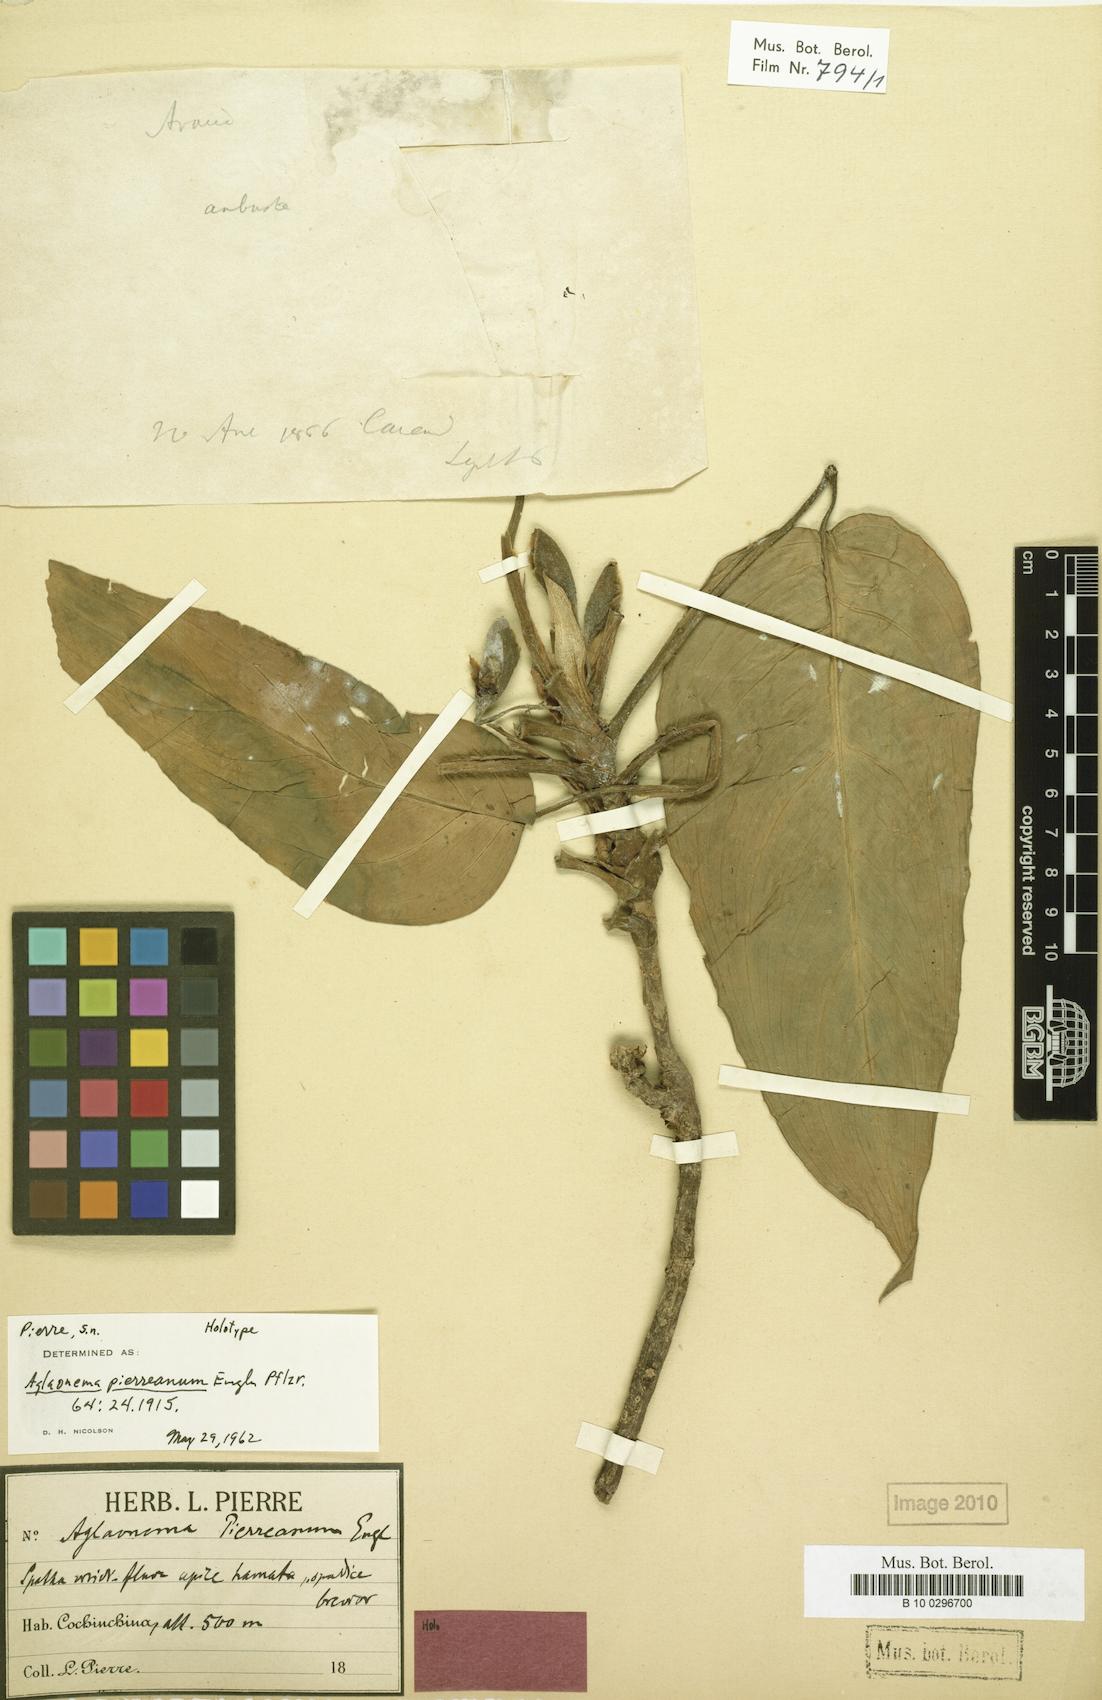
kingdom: Plantae
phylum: Tracheophyta
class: Liliopsida
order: Alismatales
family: Araceae
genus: Aglaonema
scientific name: Aglaonema simplex
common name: Malayan-sword
